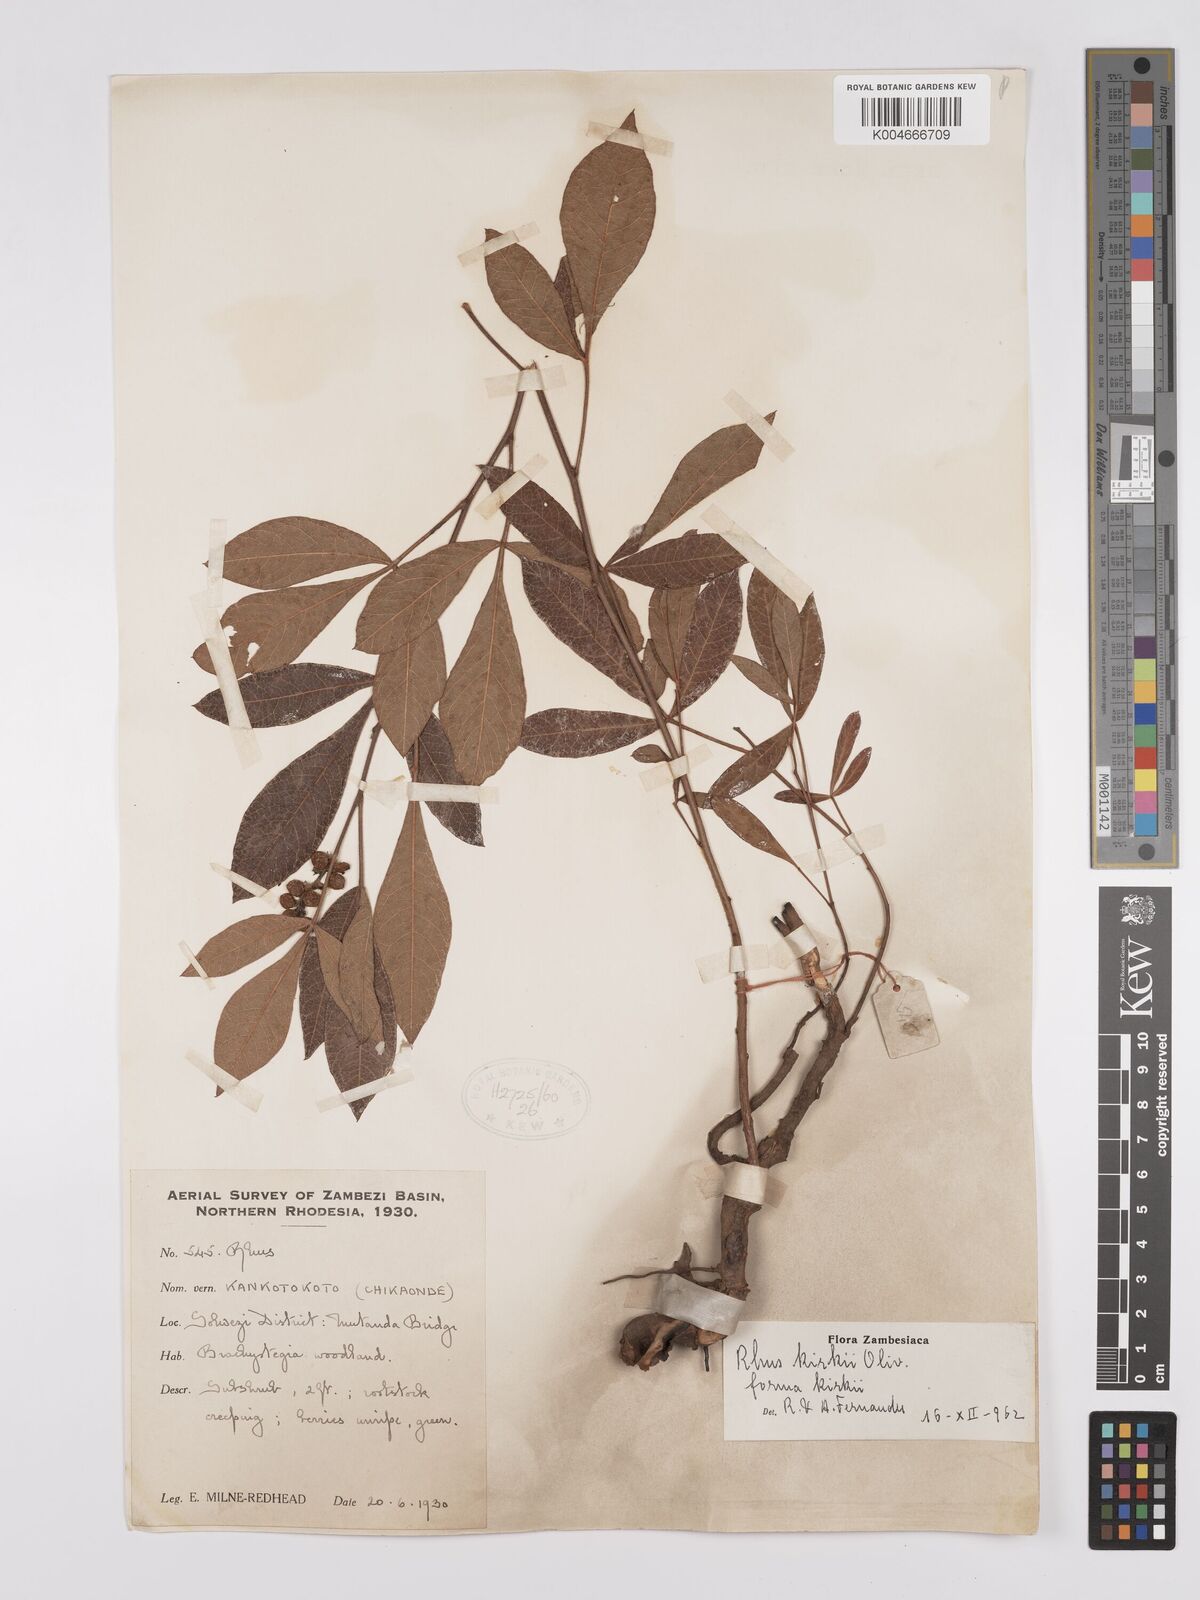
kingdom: Plantae
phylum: Tracheophyta
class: Magnoliopsida
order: Sapindales
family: Anacardiaceae
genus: Searsia
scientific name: Searsia kirkii
